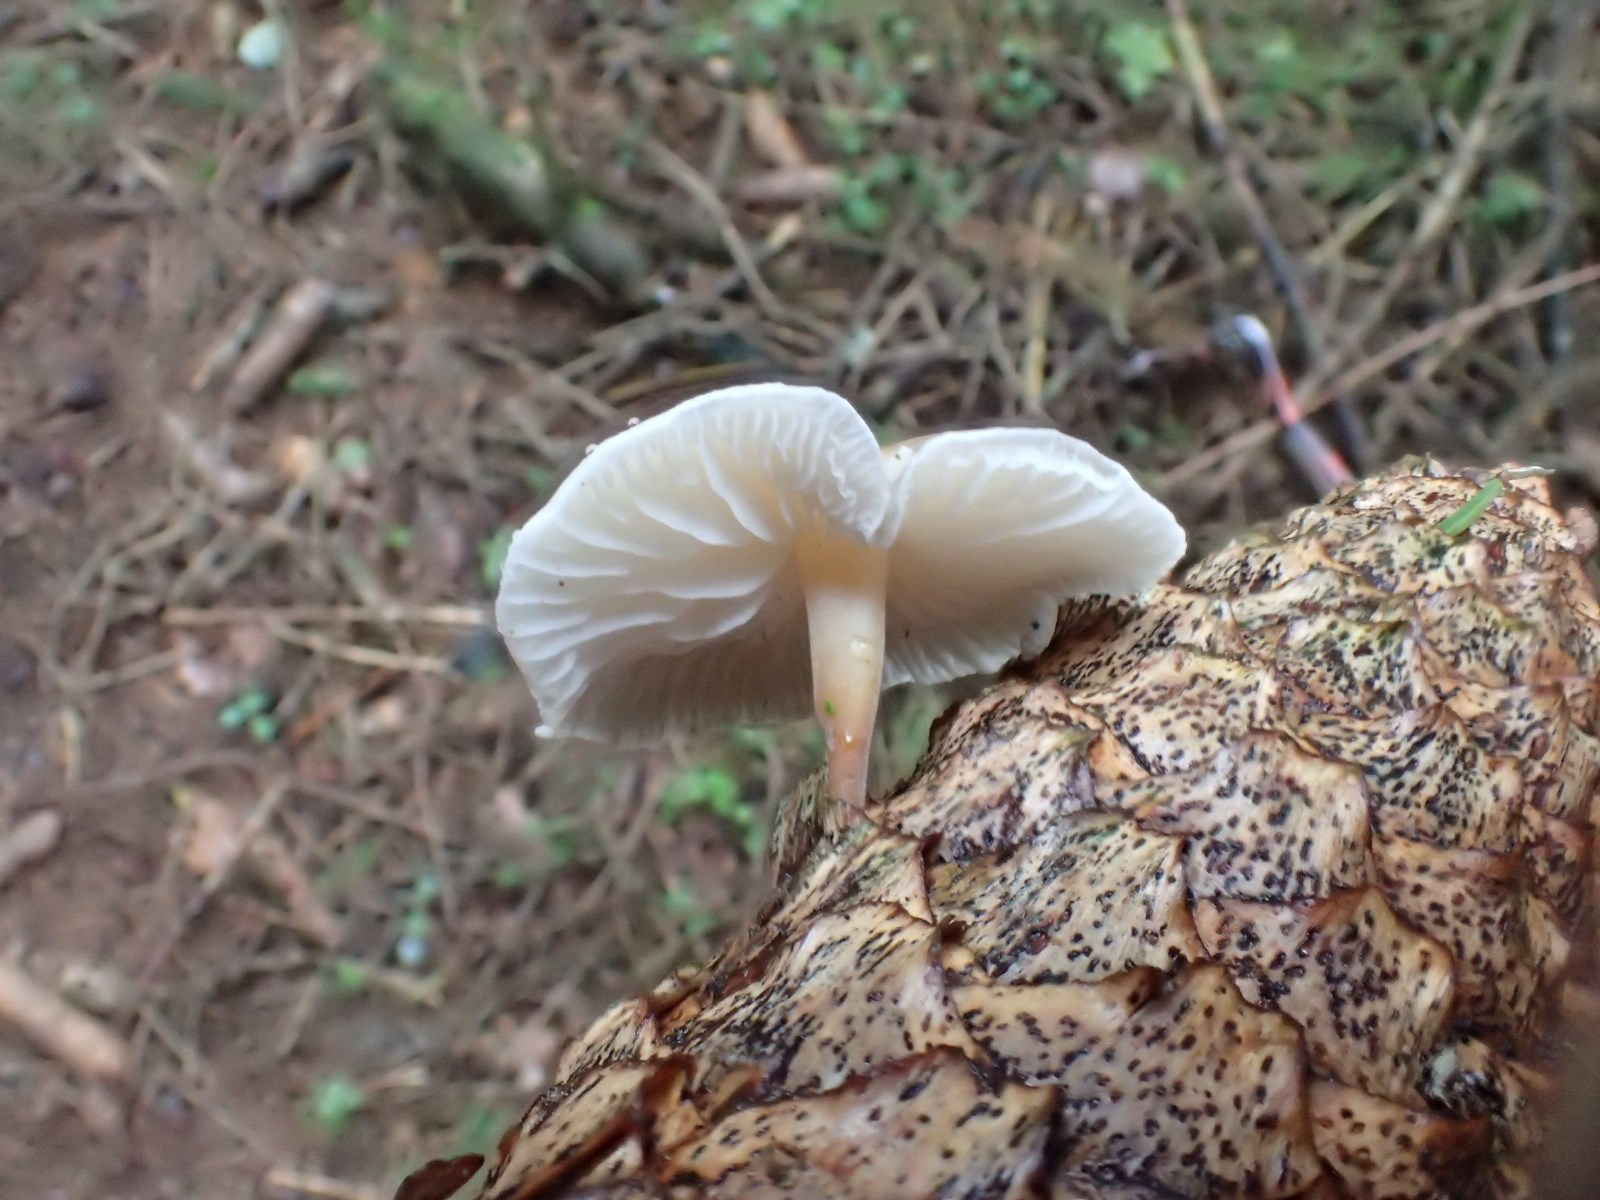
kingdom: Fungi
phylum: Basidiomycota
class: Agaricomycetes
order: Agaricales
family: Physalacriaceae
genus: Strobilurus
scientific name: Strobilurus esculentus
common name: gran-koglehat
